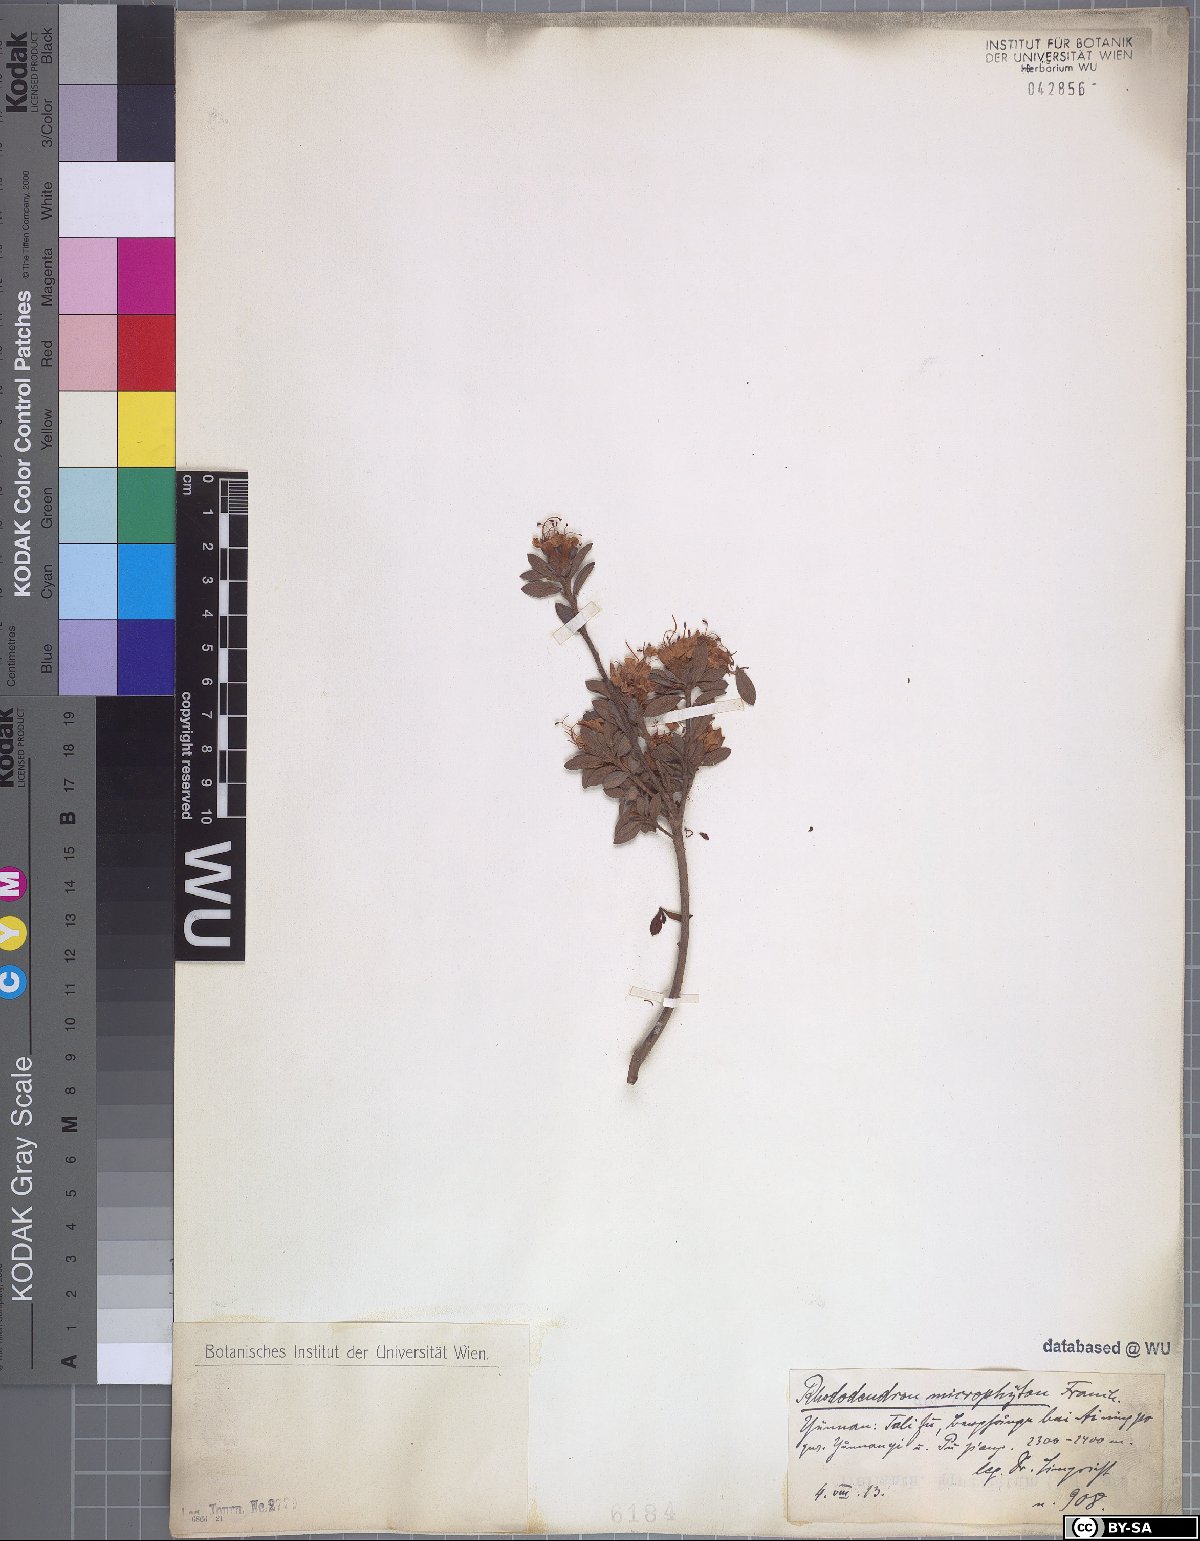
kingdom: Plantae
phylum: Tracheophyta
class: Magnoliopsida
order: Ericales
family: Ericaceae
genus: Rhododendron
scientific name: Rhododendron microphyton
